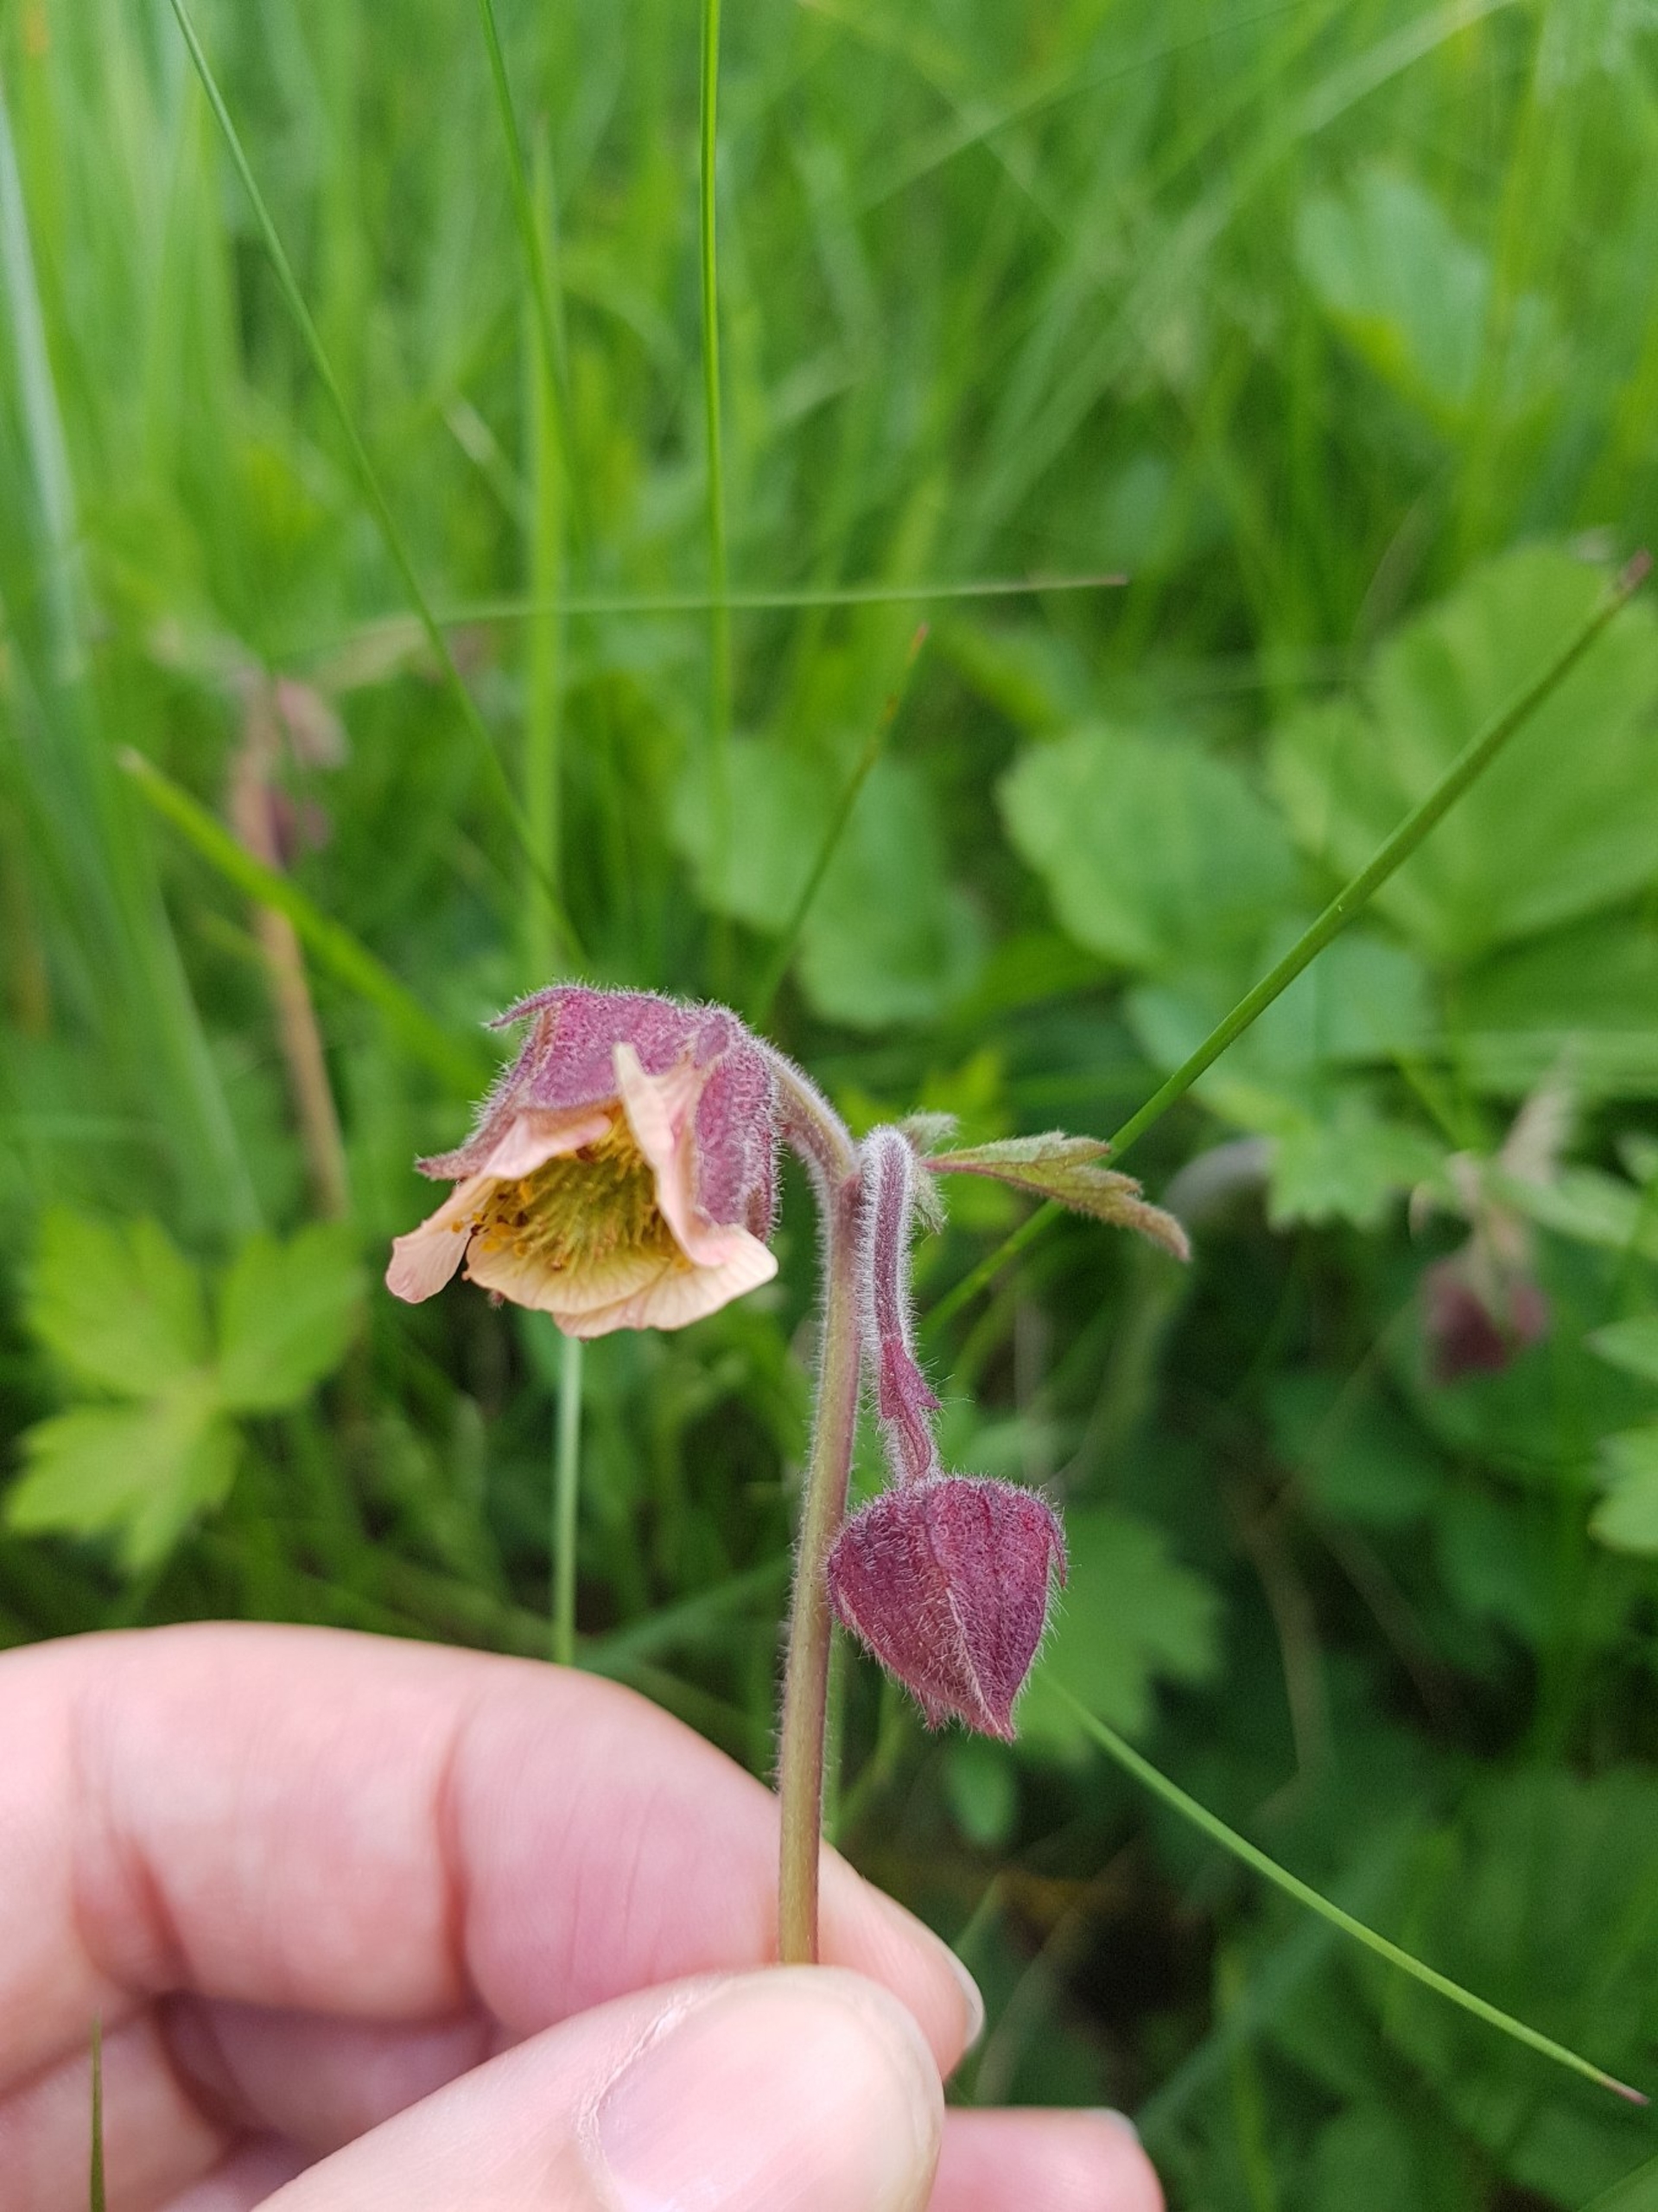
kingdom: Plantae
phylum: Tracheophyta
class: Magnoliopsida
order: Rosales
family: Rosaceae
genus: Geum
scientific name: Geum rivale
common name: Eng-nellikerod
